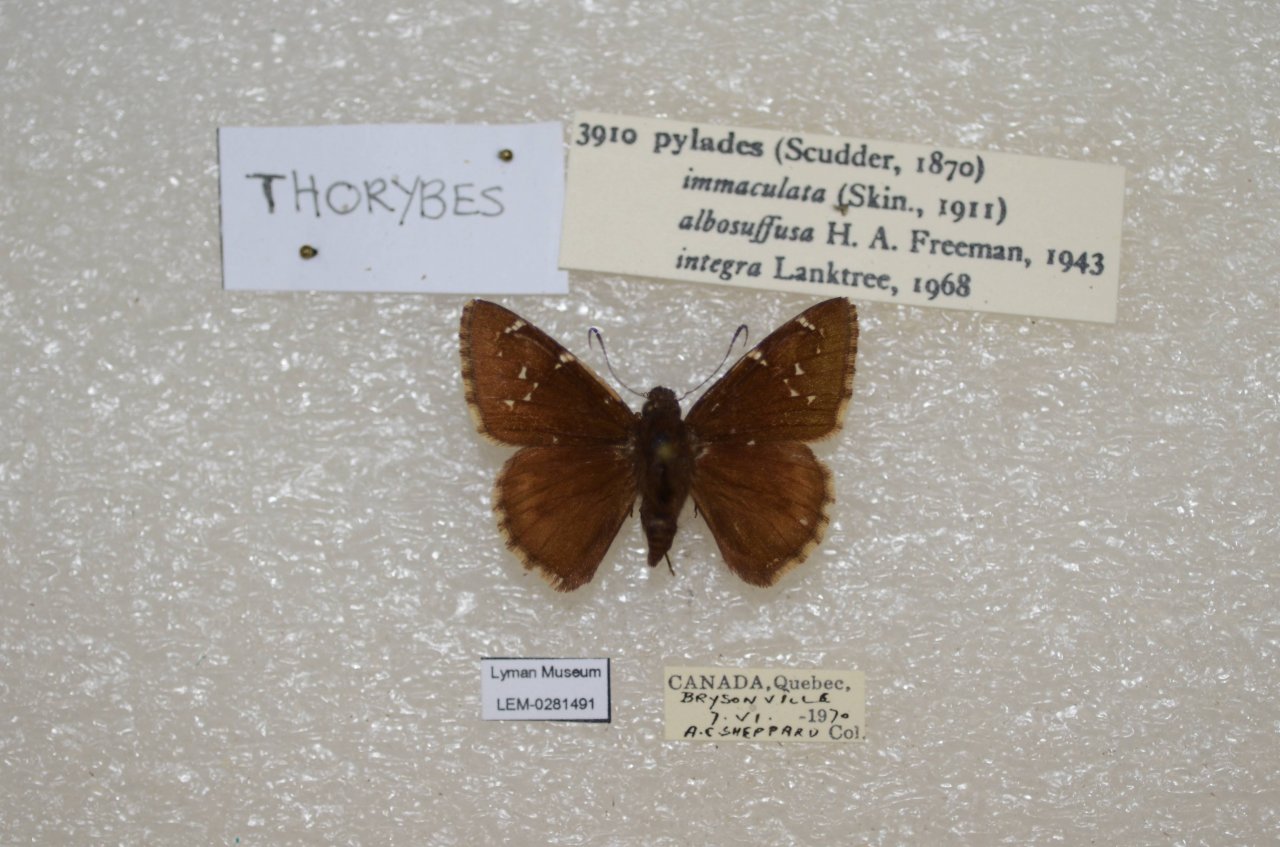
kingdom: Animalia
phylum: Arthropoda
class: Insecta
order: Lepidoptera
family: Hesperiidae
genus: Autochton
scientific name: Autochton
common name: Northern Cloudywing
